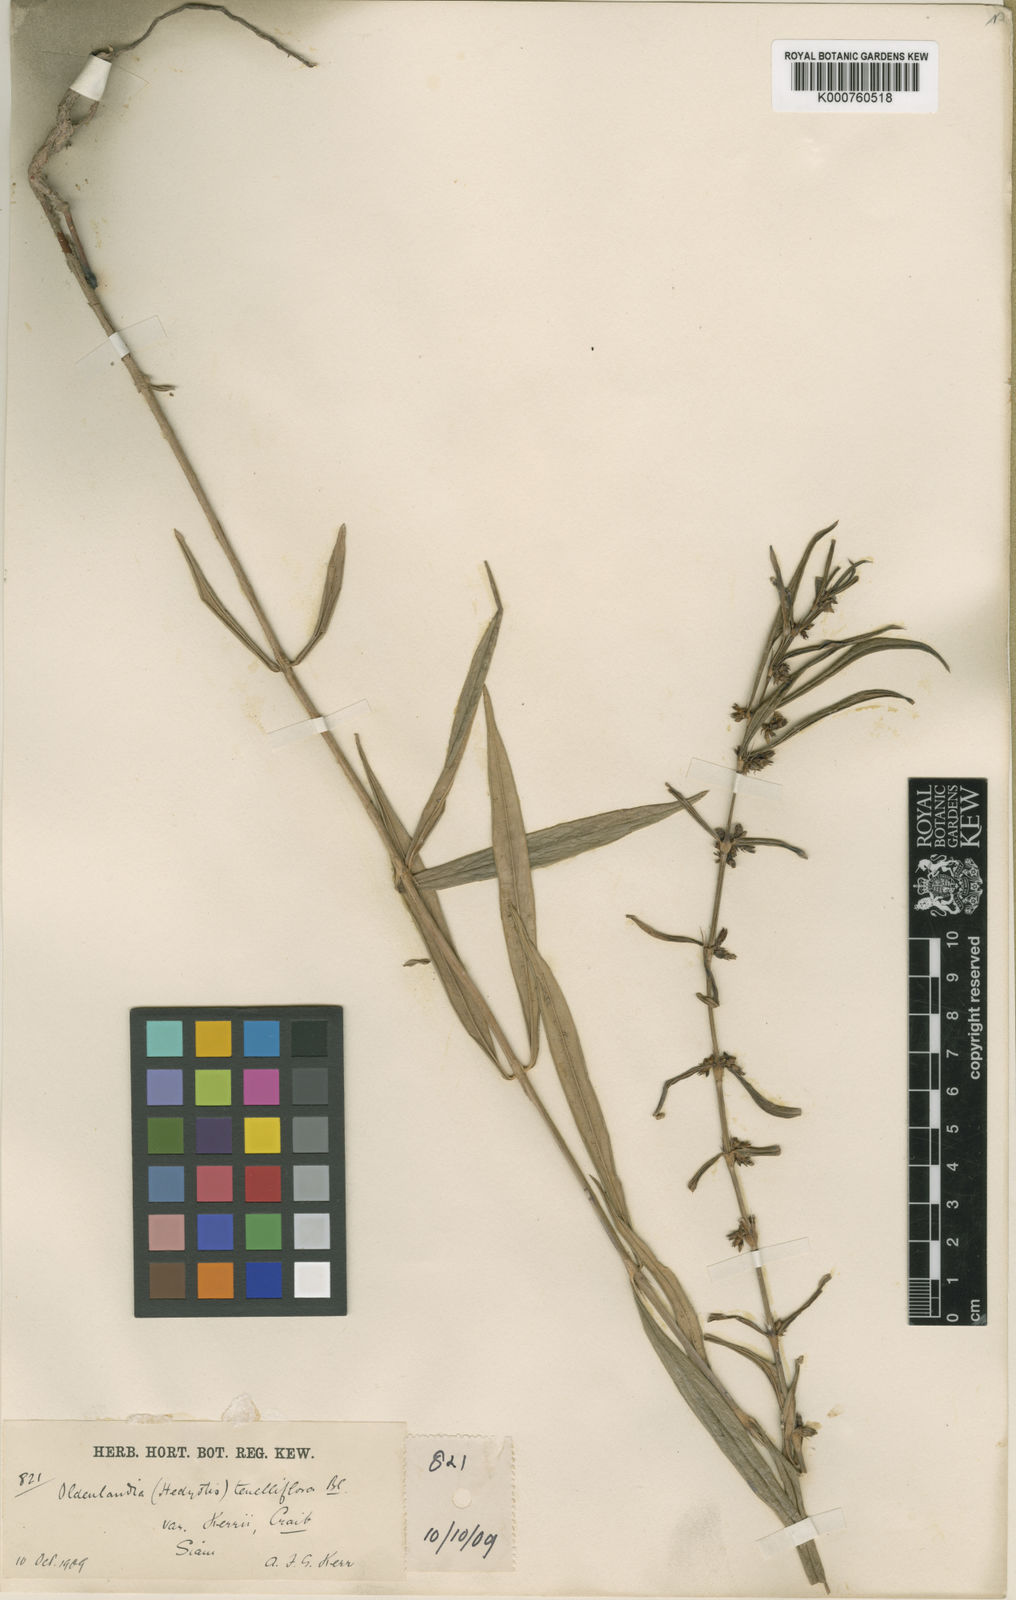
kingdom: Plantae
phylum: Tracheophyta
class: Magnoliopsida
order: Gentianales
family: Rubiaceae
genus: Scleromitrion
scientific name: Scleromitrion tenelliflorum
